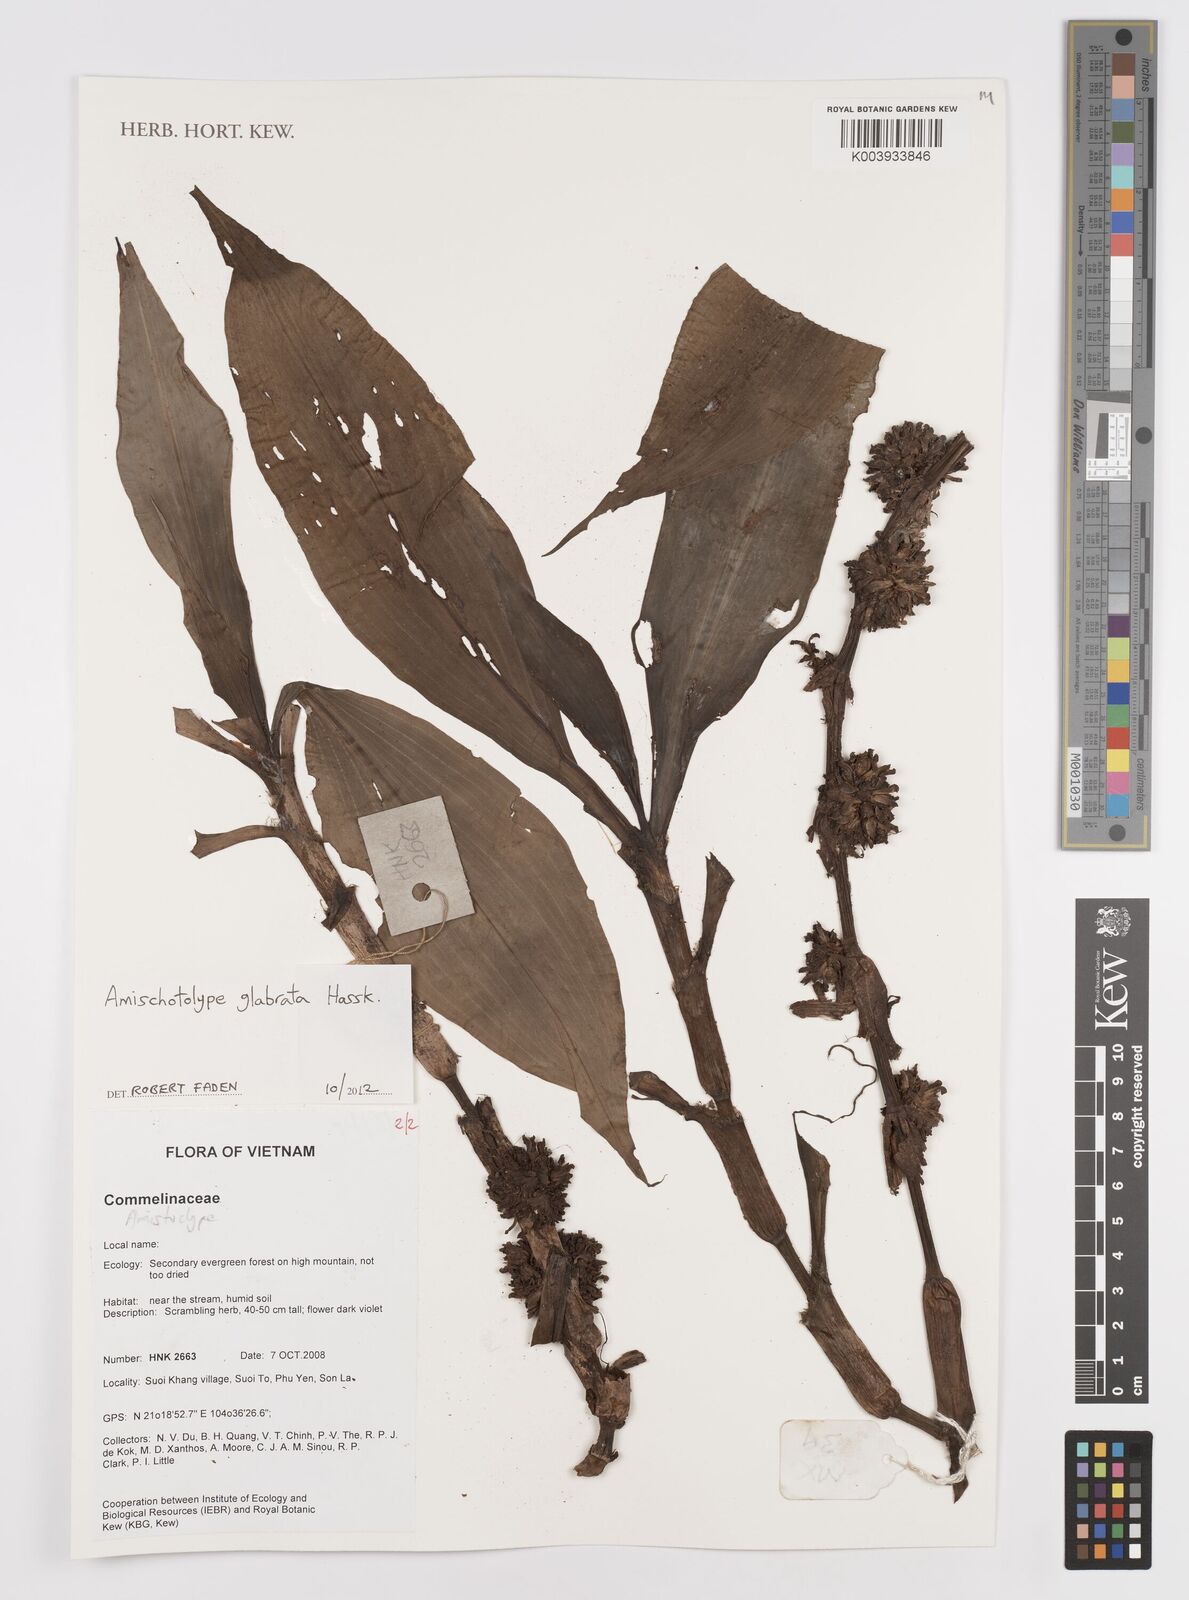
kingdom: Plantae
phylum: Tracheophyta
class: Liliopsida
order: Commelinales
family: Commelinaceae
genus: Amischotolype
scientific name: Amischotolype glabrata
